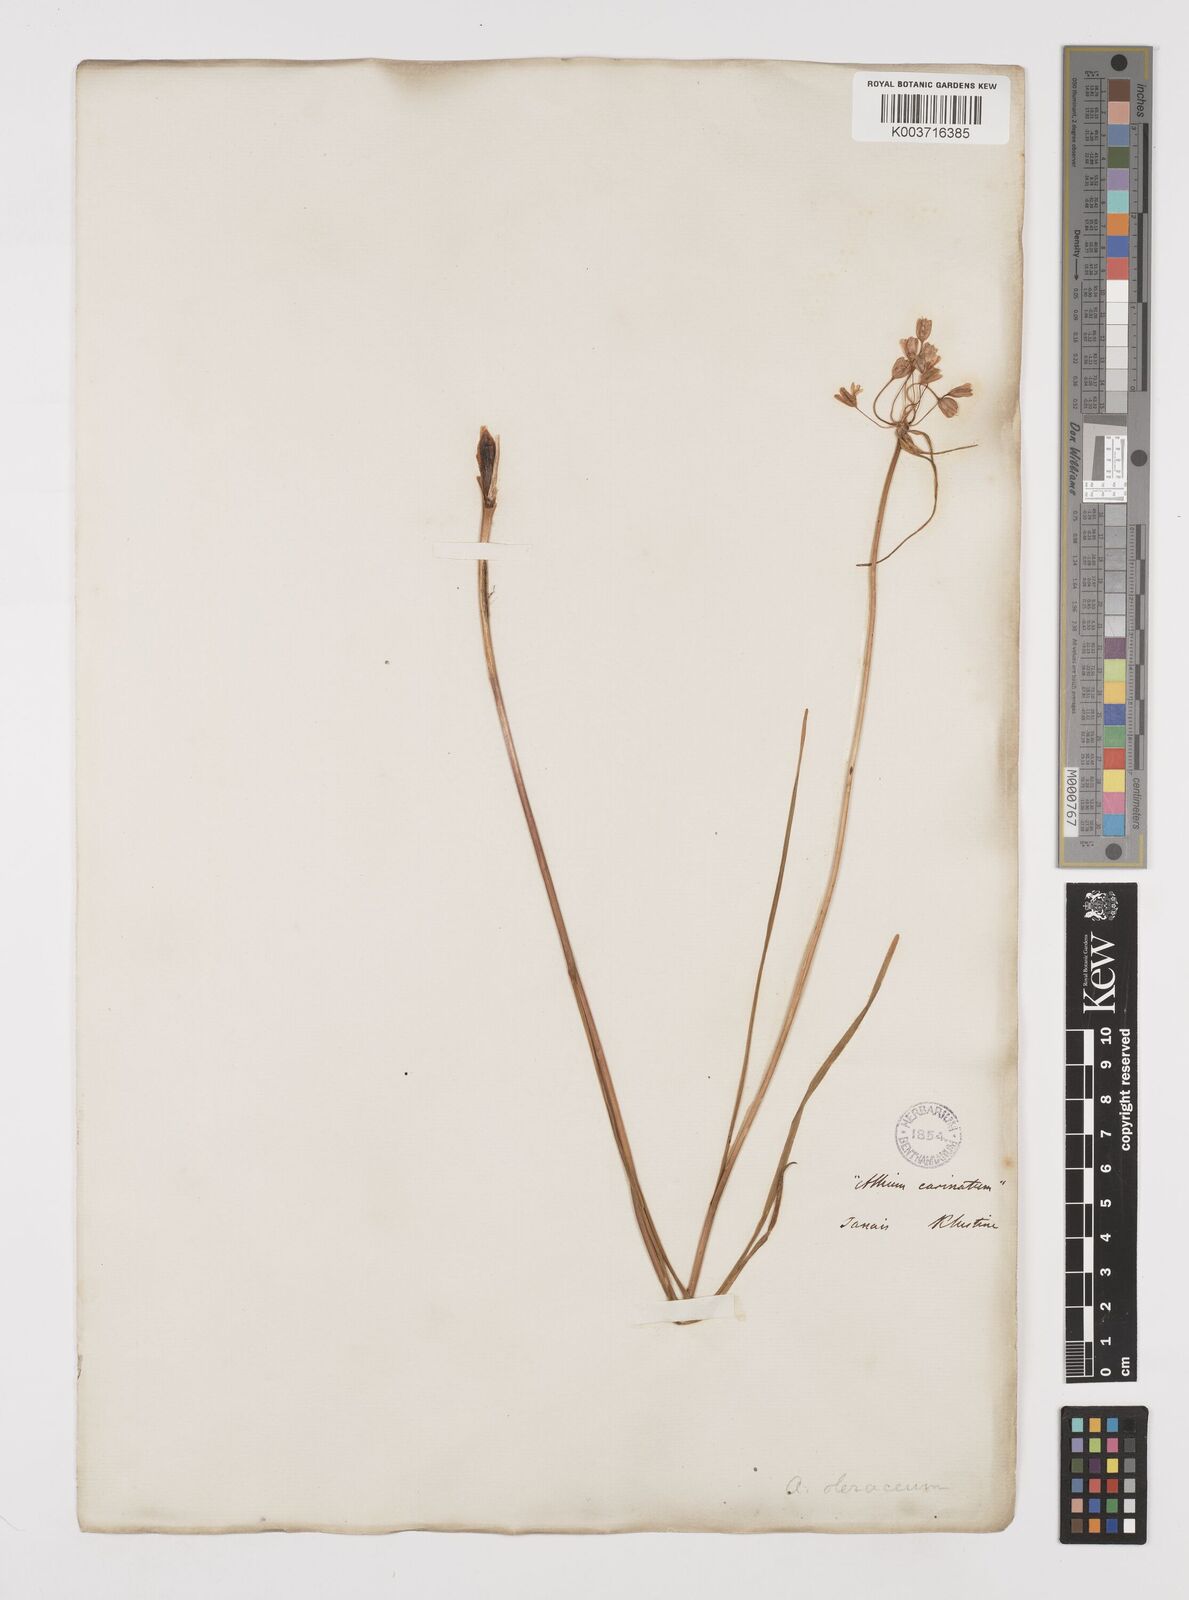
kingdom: Plantae
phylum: Tracheophyta
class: Liliopsida
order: Asparagales
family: Amaryllidaceae
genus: Allium
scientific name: Allium oleraceum
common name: Field garlic
